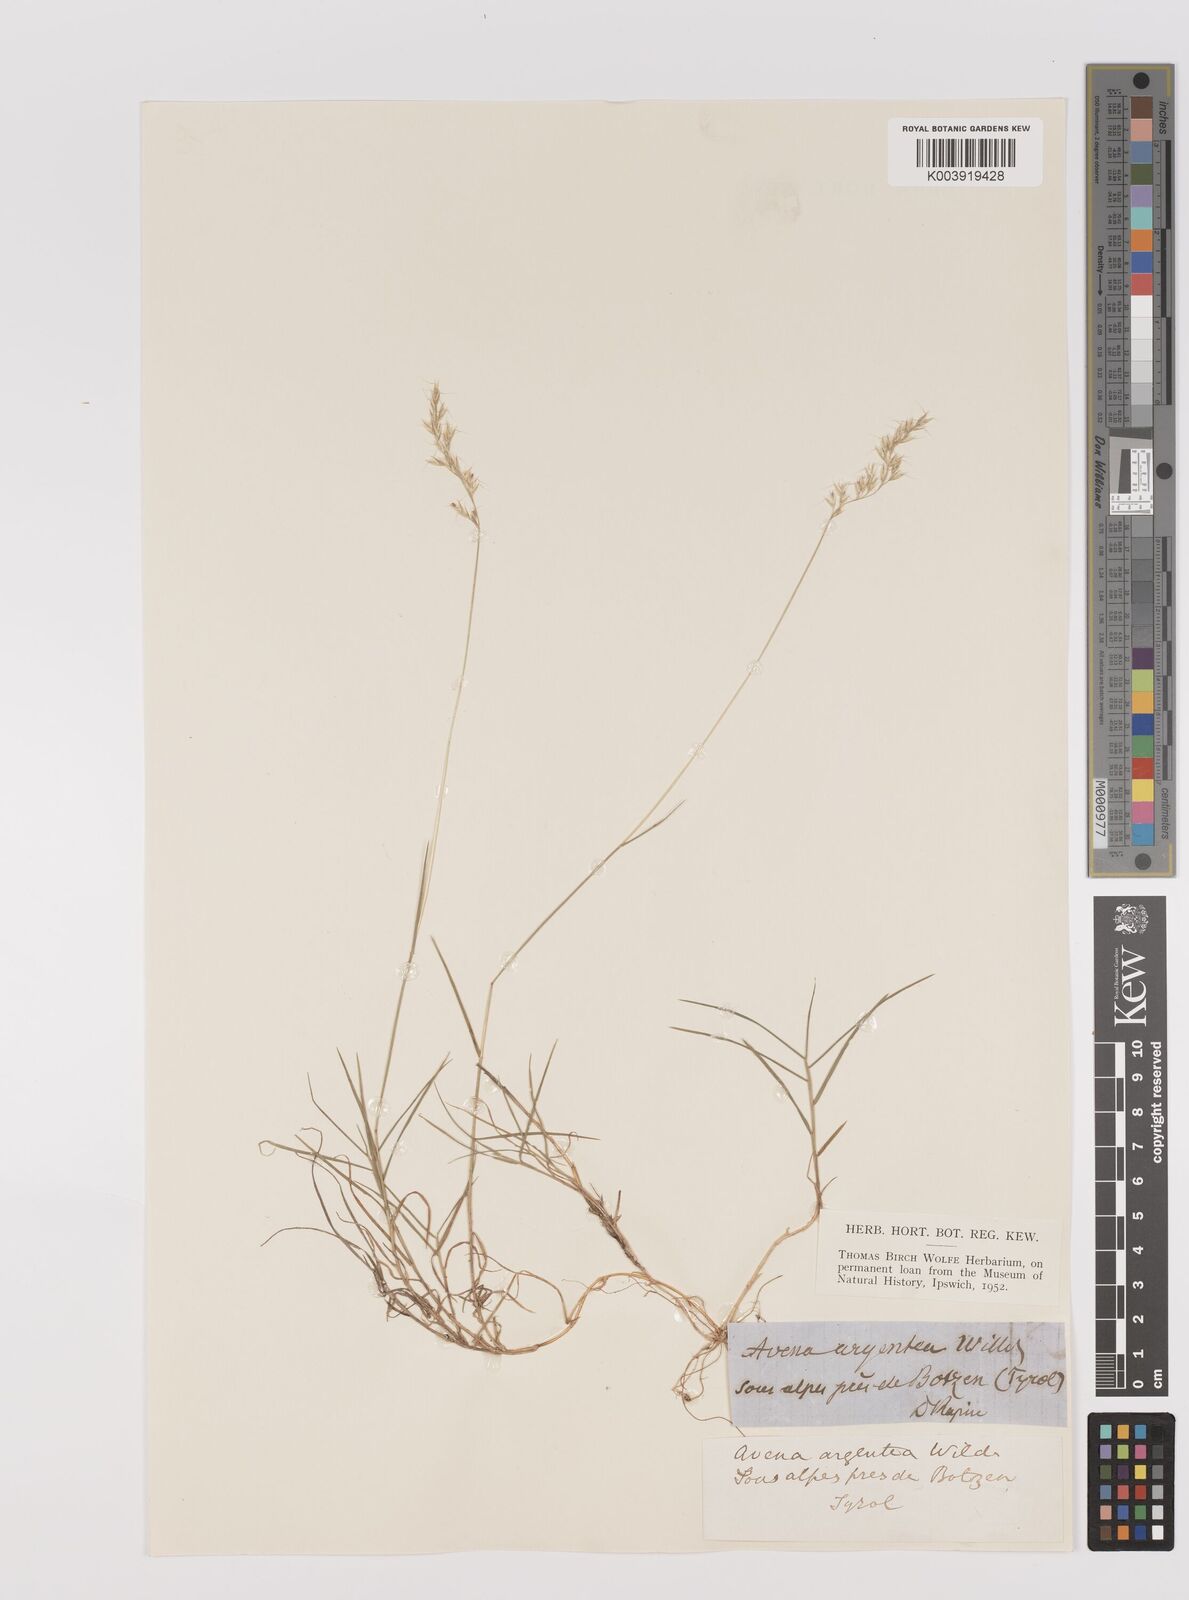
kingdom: Plantae
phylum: Tracheophyta
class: Liliopsida
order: Poales
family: Poaceae
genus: Trisetum
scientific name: Trisetum argenteum
